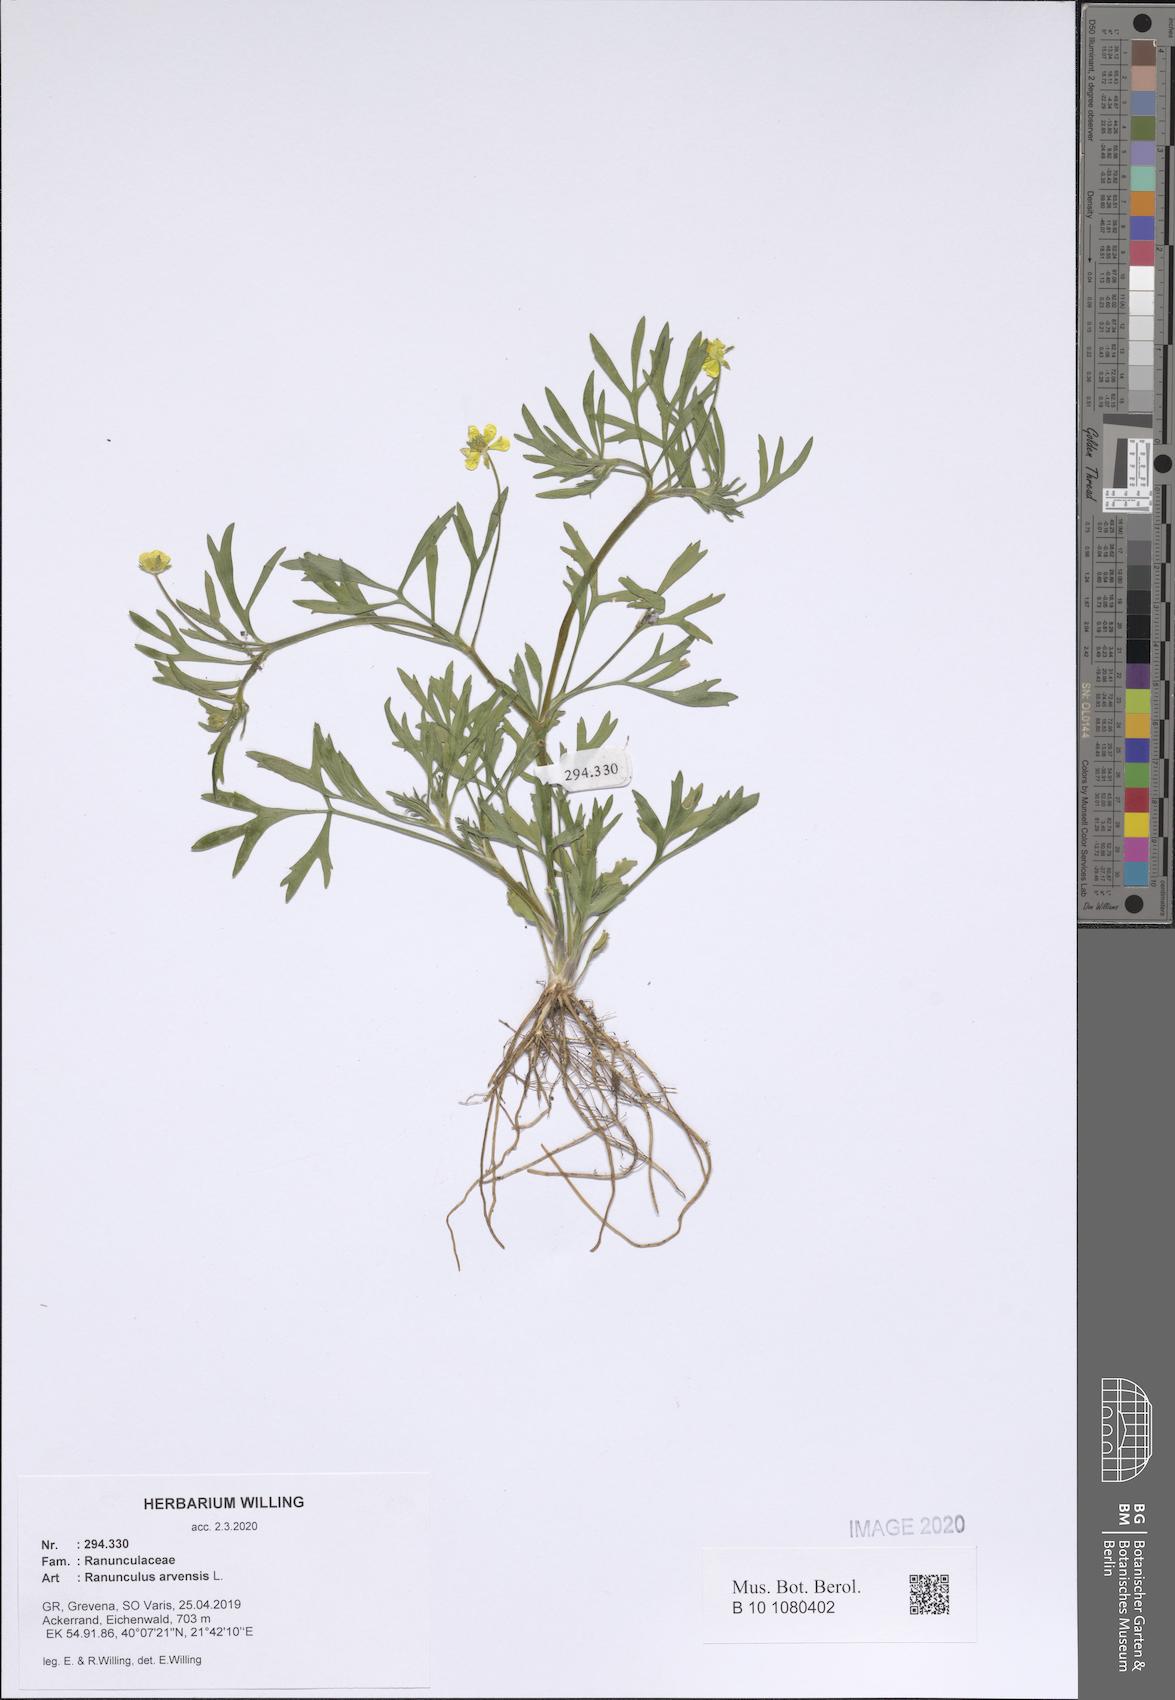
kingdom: Plantae
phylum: Tracheophyta
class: Magnoliopsida
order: Ranunculales
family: Ranunculaceae
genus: Ranunculus
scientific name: Ranunculus arvensis
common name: Corn buttercup
